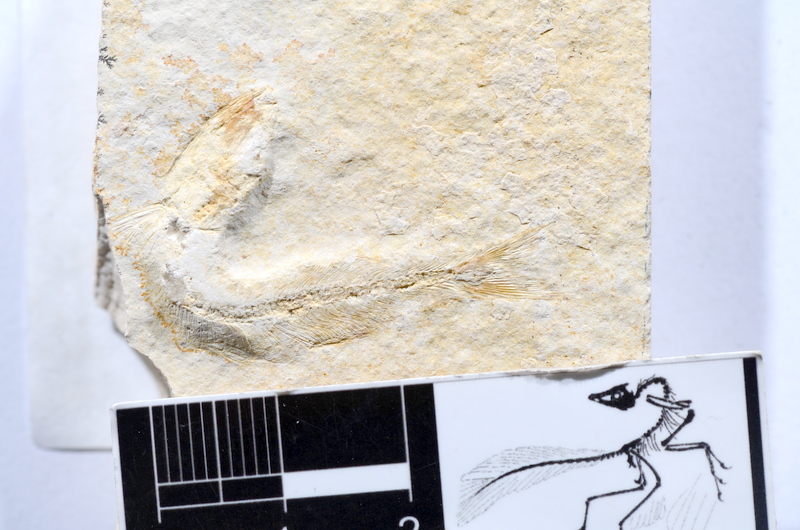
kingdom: Animalia
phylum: Chordata
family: Allothrissopidae
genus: Allothrissops
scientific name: Allothrissops mesogaster
